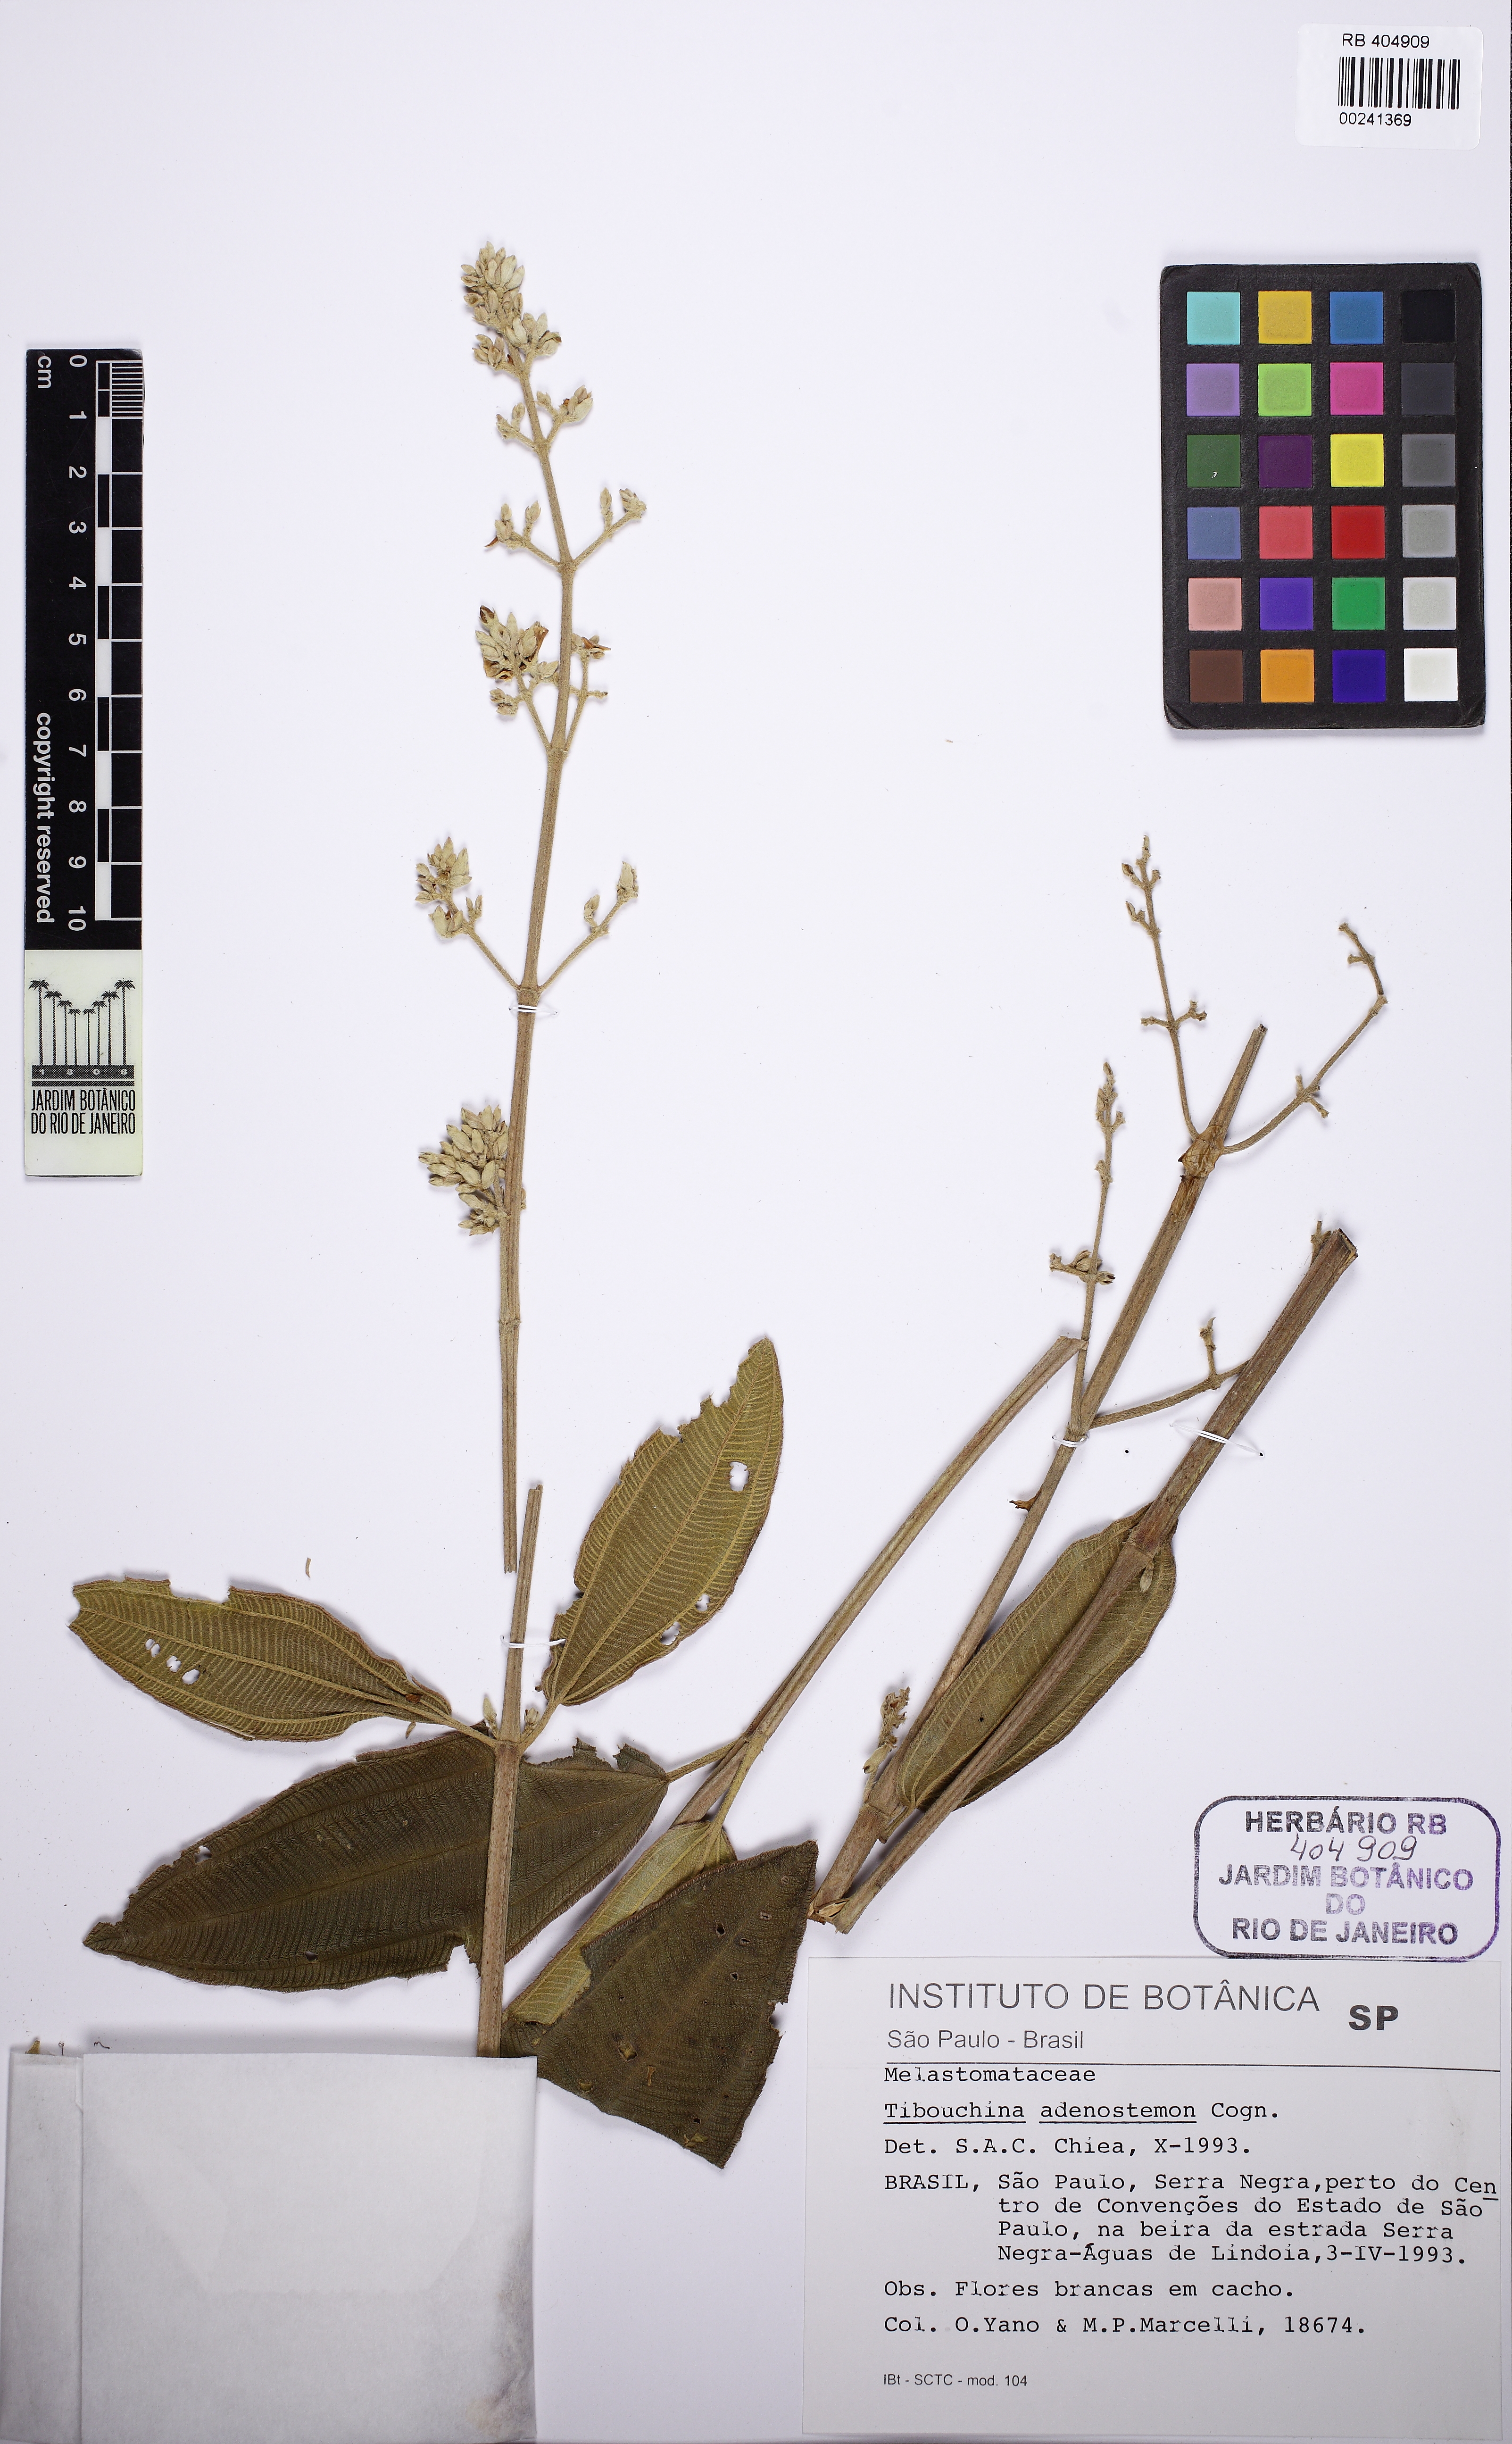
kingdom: Plantae
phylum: Tracheophyta
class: Magnoliopsida
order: Myrtales
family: Melastomataceae
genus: Pleroma
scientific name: Pleroma heteromallum
